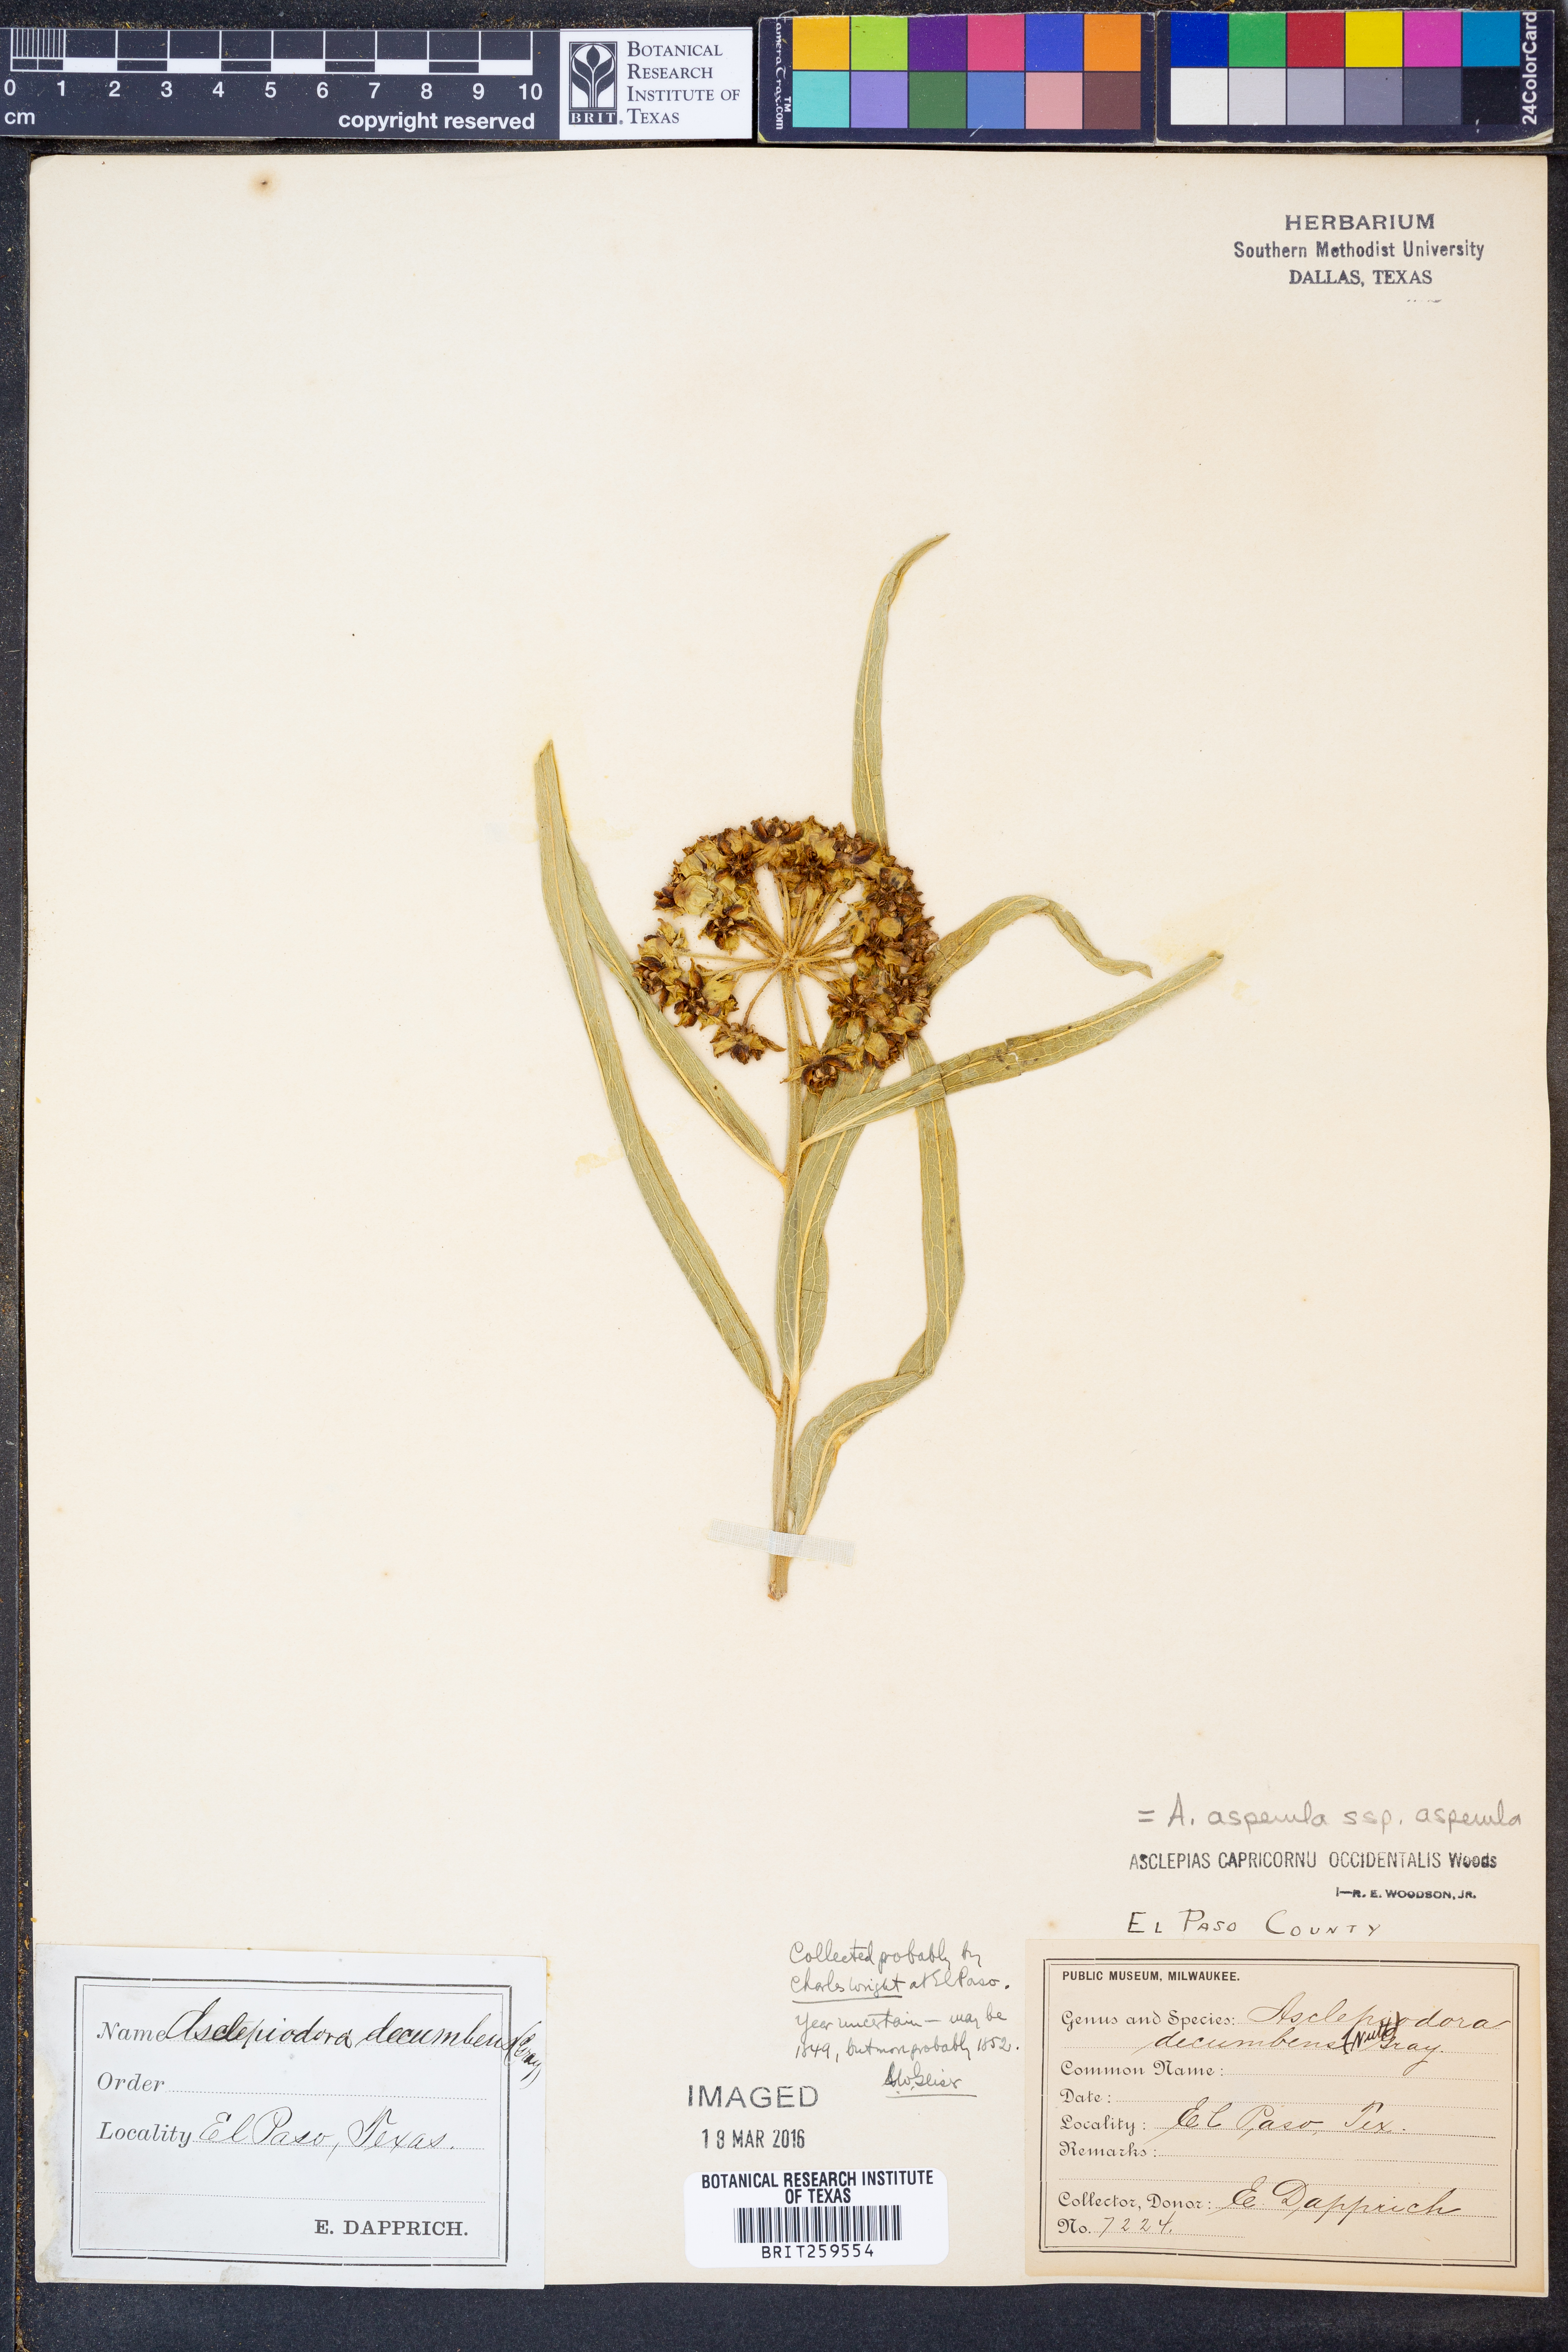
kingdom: Plantae
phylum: Tracheophyta
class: Magnoliopsida
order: Gentianales
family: Apocynaceae
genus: Asclepias
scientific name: Asclepias asperula
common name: Antelope horns
